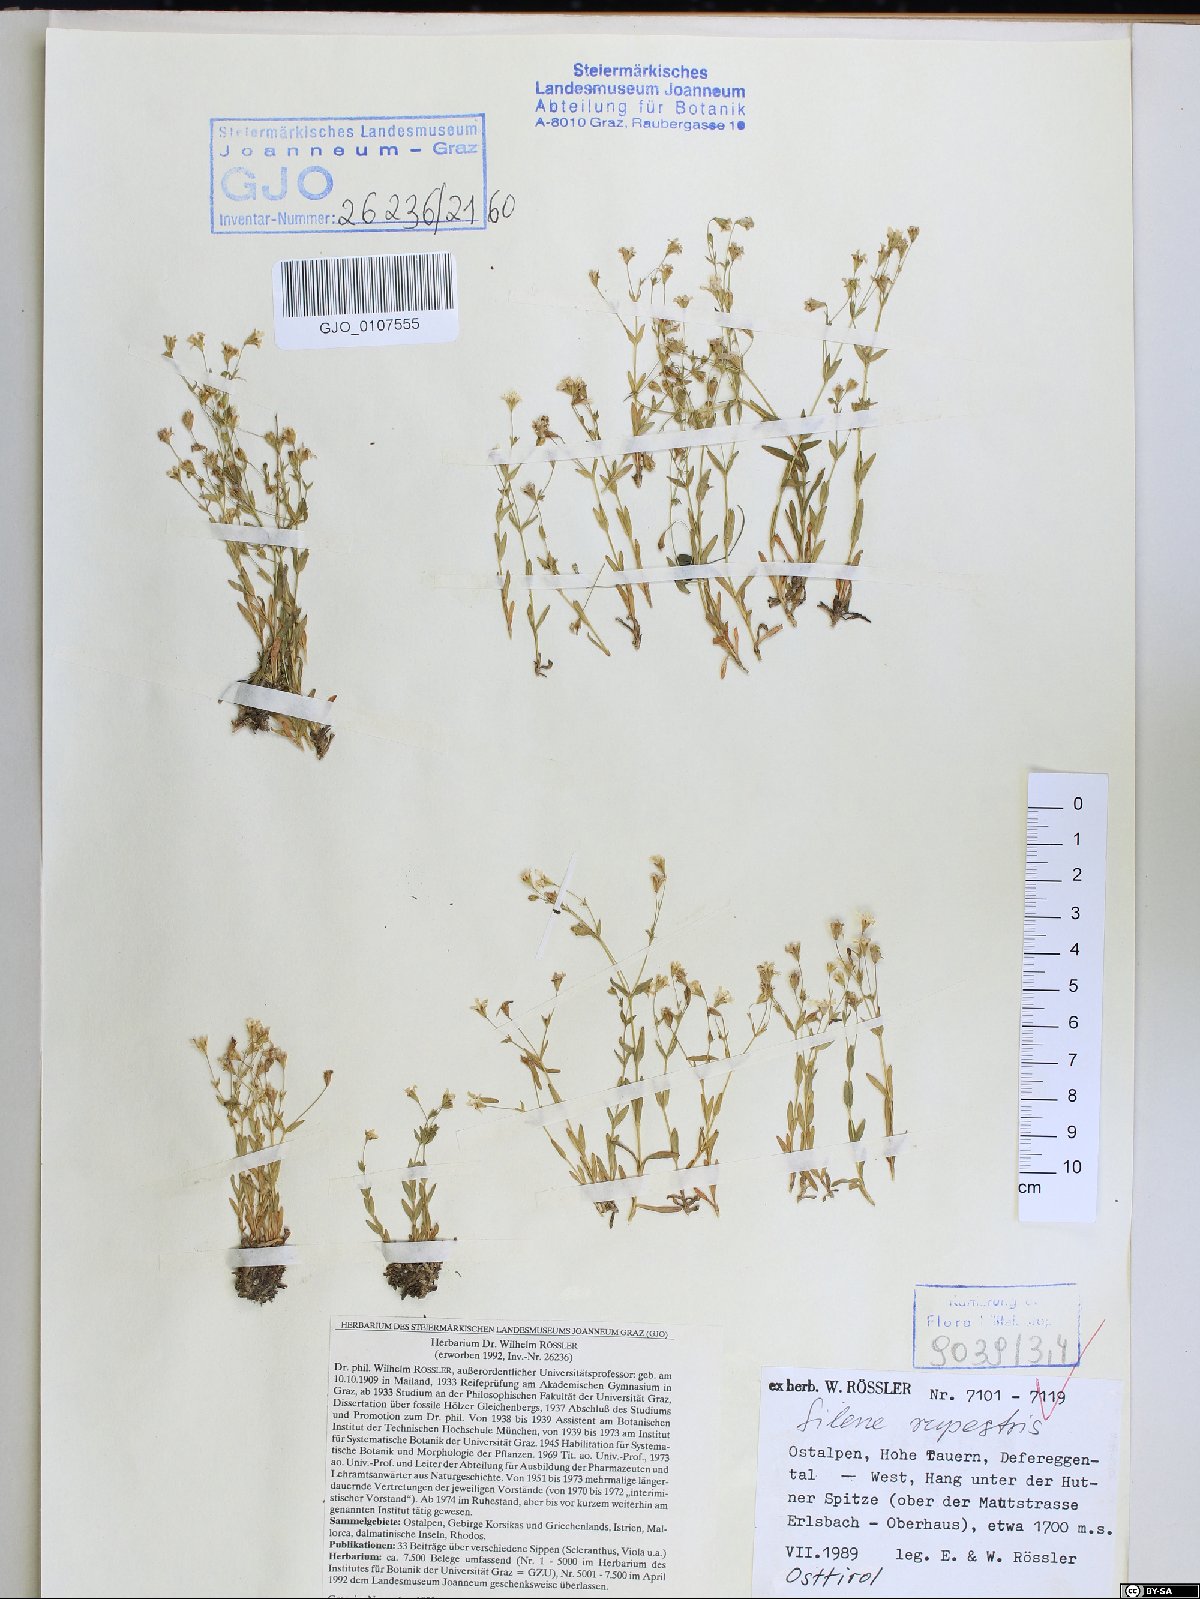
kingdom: Plantae
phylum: Tracheophyta
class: Magnoliopsida
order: Caryophyllales
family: Caryophyllaceae
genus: Atocion
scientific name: Atocion rupestre
